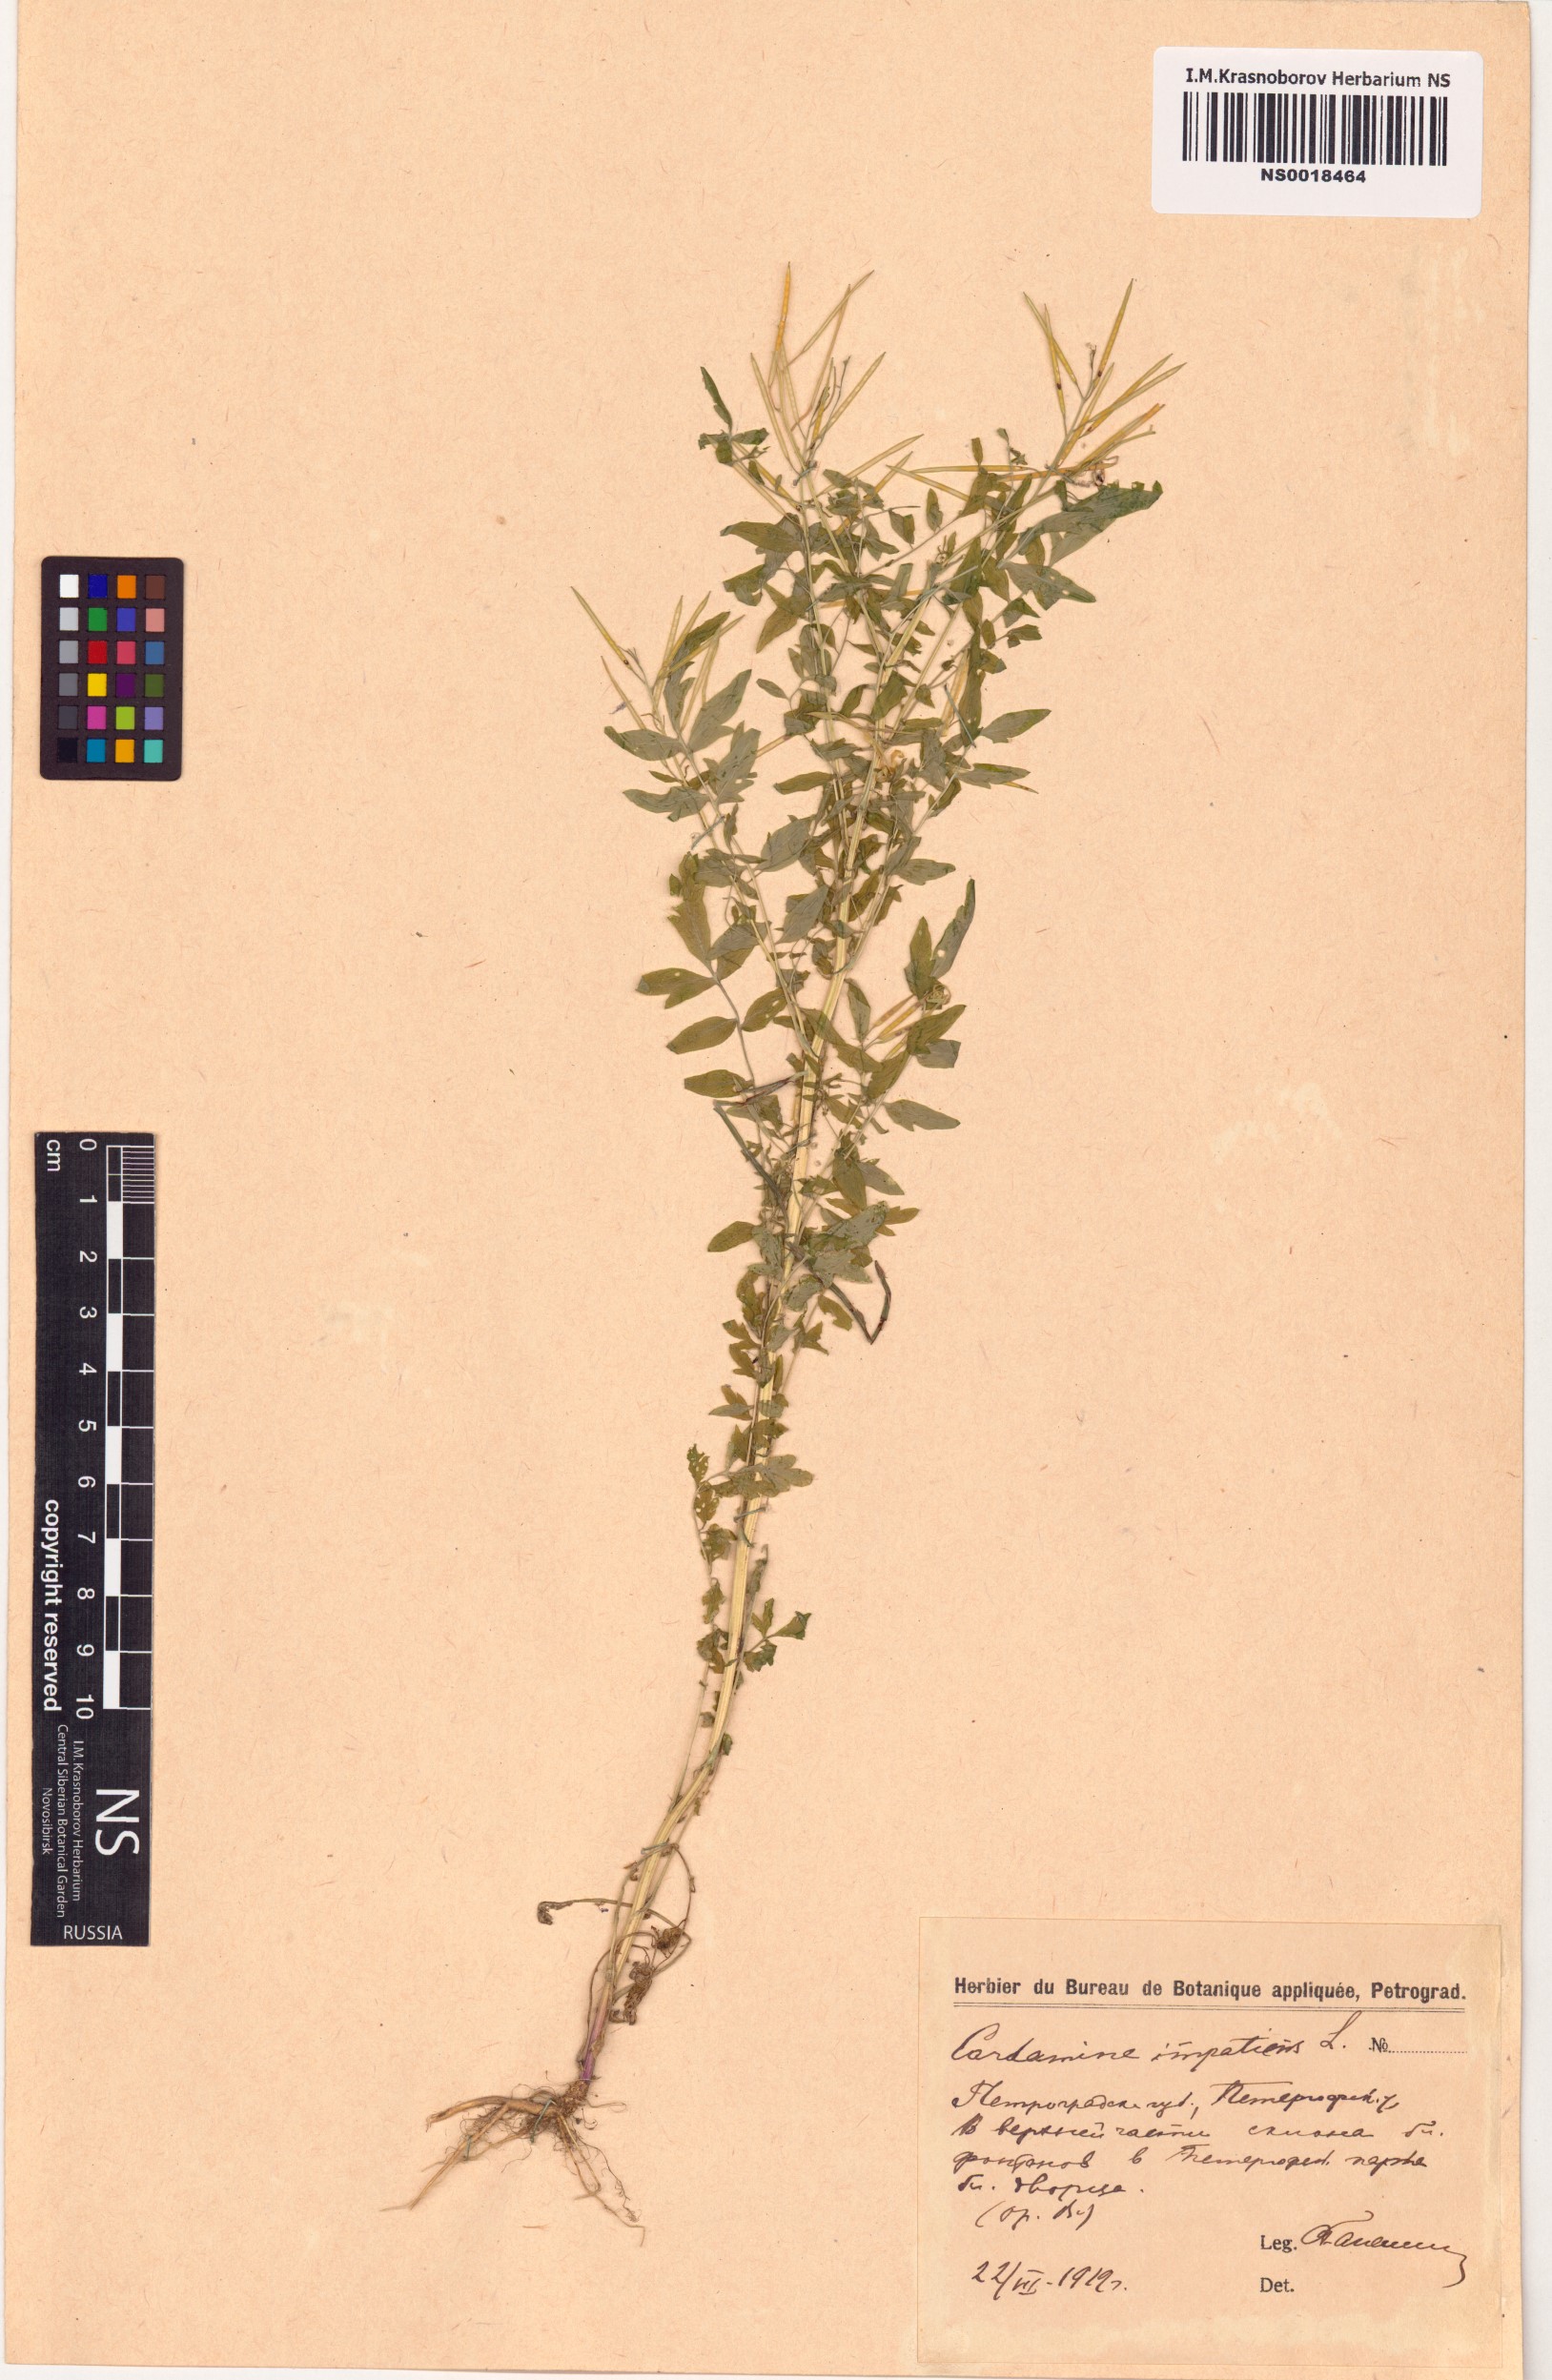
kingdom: Plantae
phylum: Tracheophyta
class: Magnoliopsida
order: Brassicales
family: Brassicaceae
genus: Cardamine
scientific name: Cardamine impatiens
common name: Narrow-leaved bitter-cress
